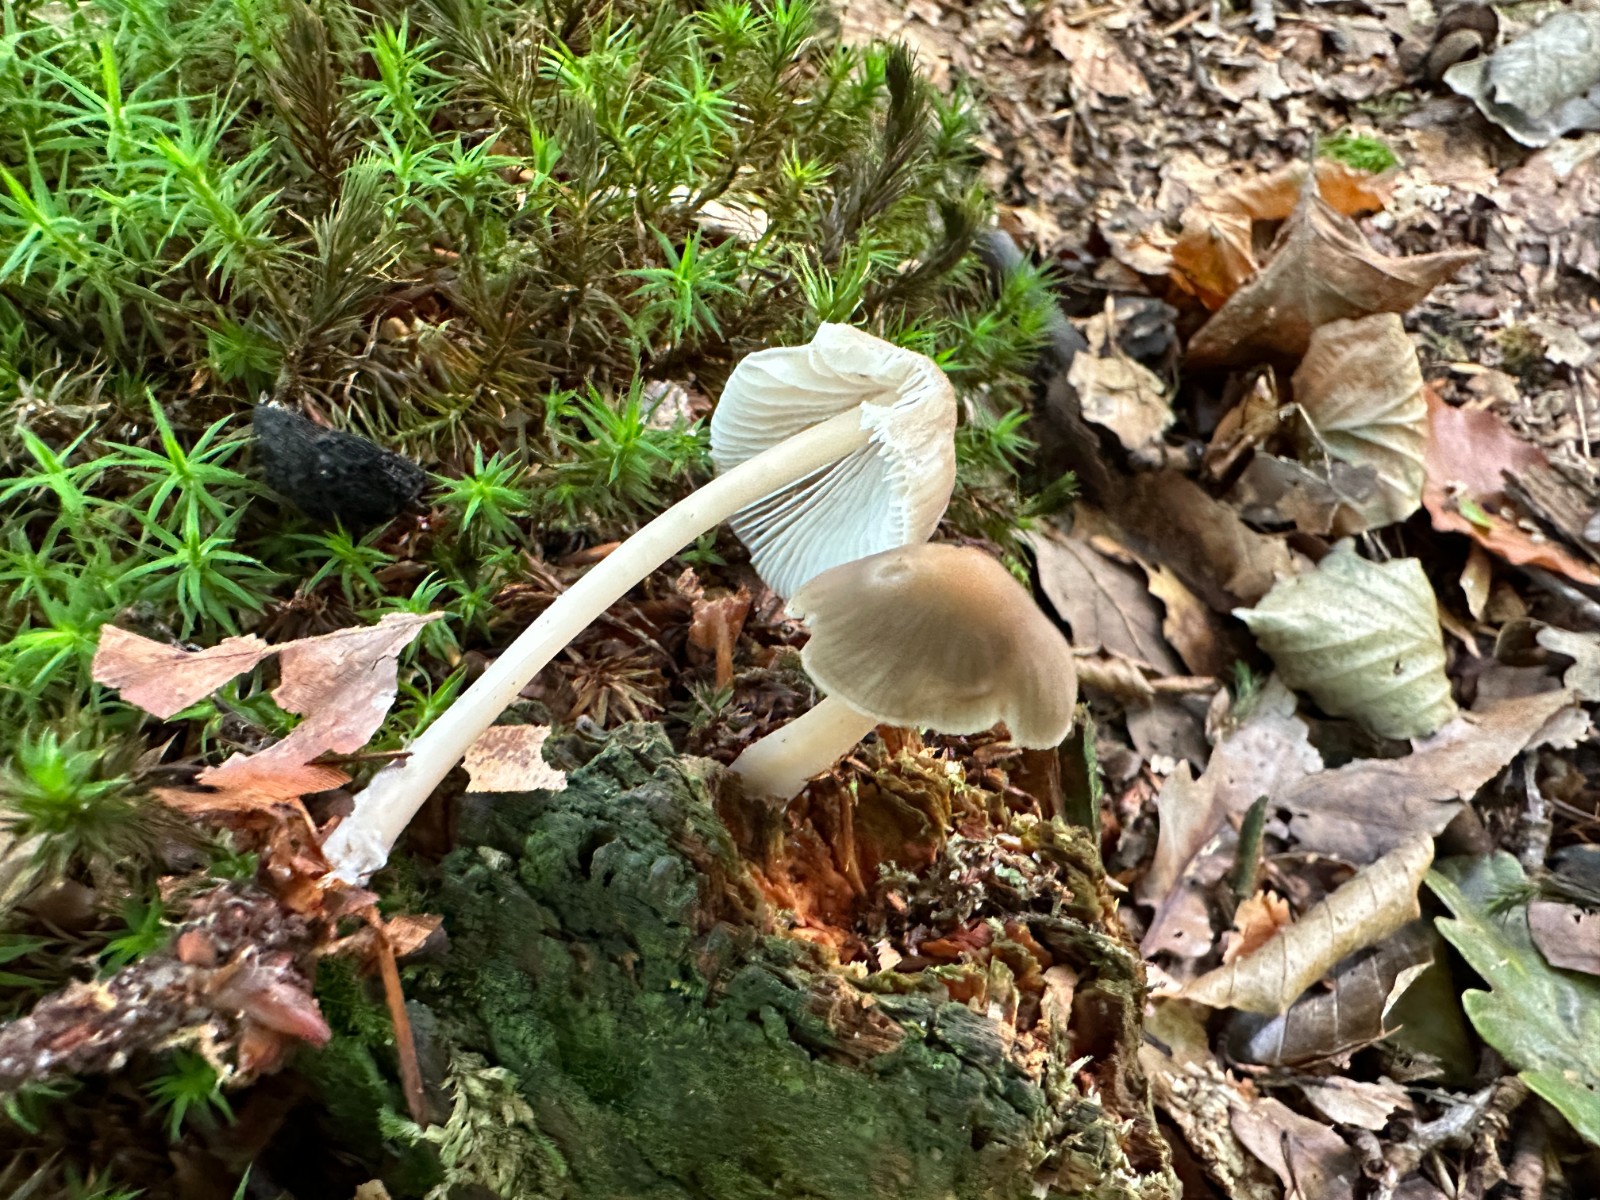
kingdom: Fungi
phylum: Basidiomycota
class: Agaricomycetes
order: Agaricales
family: Mycenaceae
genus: Mycena
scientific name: Mycena galericulata
